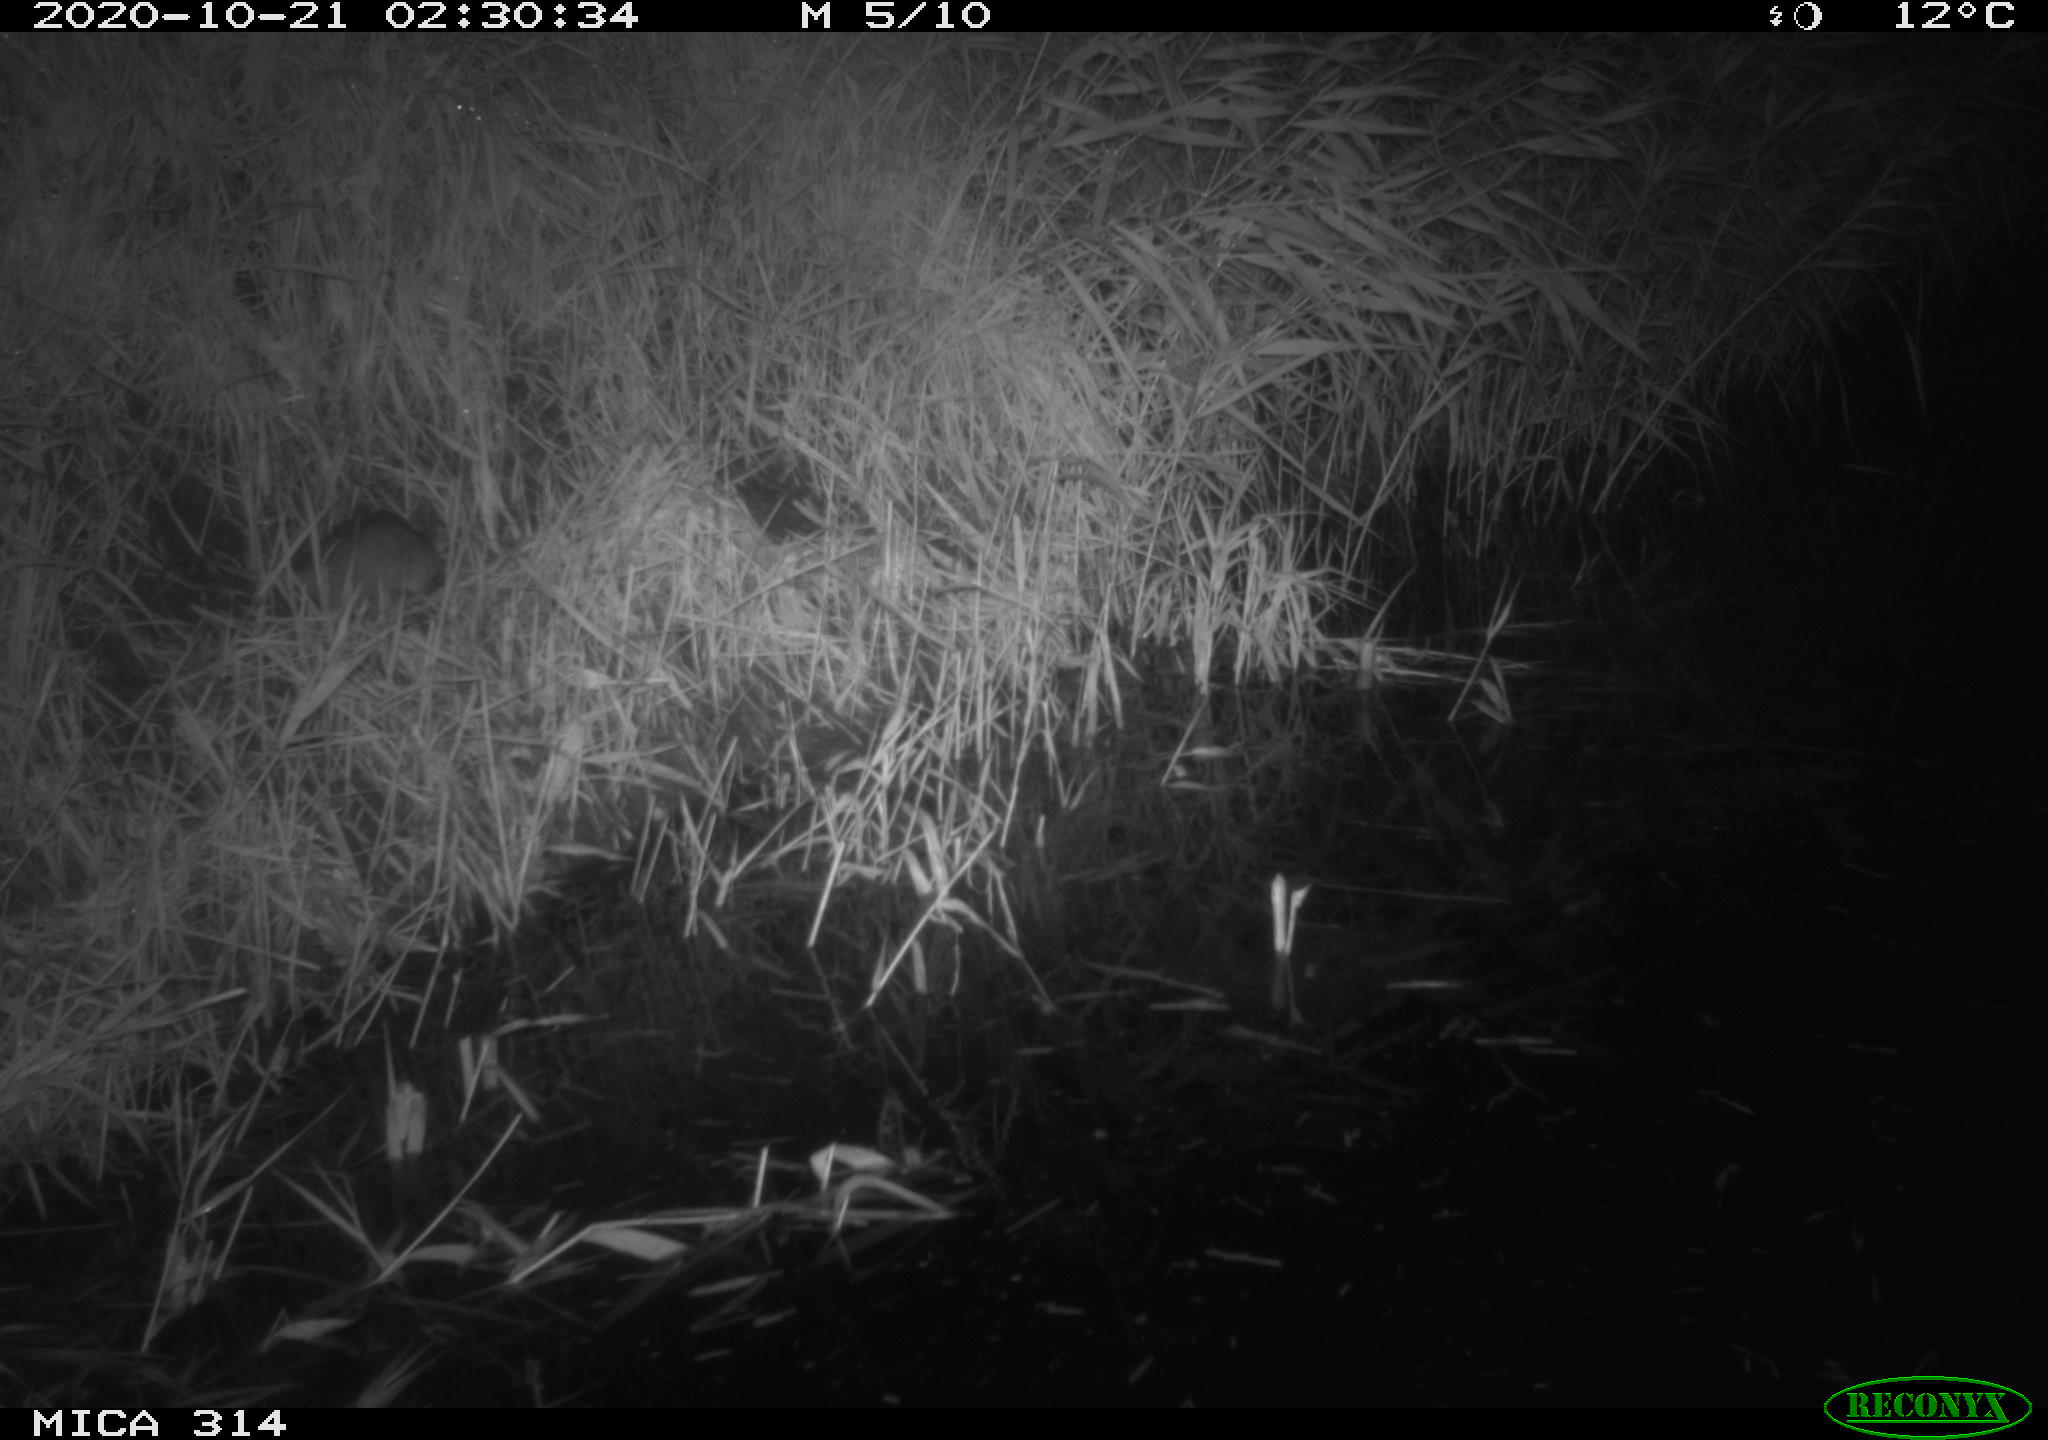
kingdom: Animalia
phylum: Chordata
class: Mammalia
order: Rodentia
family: Muridae
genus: Rattus
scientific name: Rattus norvegicus
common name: Brown rat
